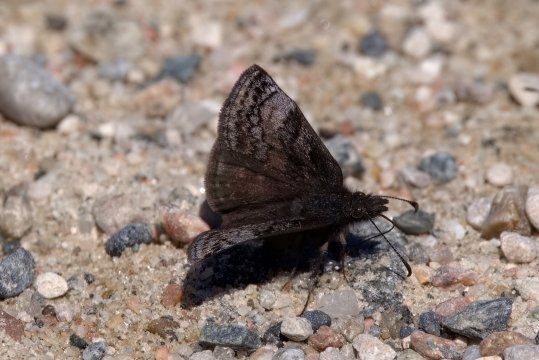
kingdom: Animalia
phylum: Arthropoda
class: Insecta
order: Lepidoptera
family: Hesperiidae
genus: Erynnis
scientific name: Erynnis icelus
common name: Dreamy Duskywing
